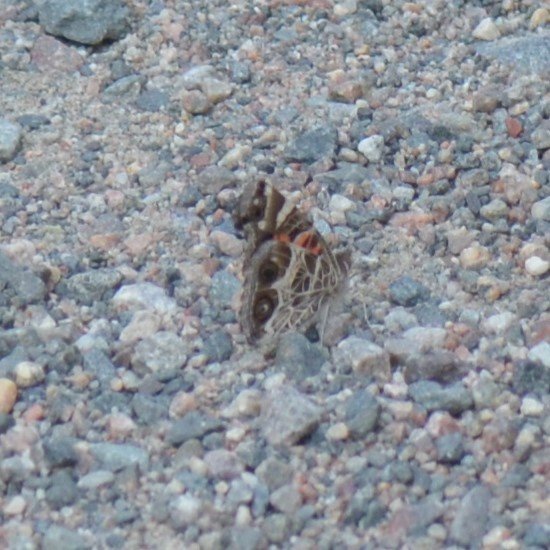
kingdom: Animalia
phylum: Arthropoda
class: Insecta
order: Lepidoptera
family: Nymphalidae
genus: Vanessa
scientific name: Vanessa virginiensis
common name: American Lady
